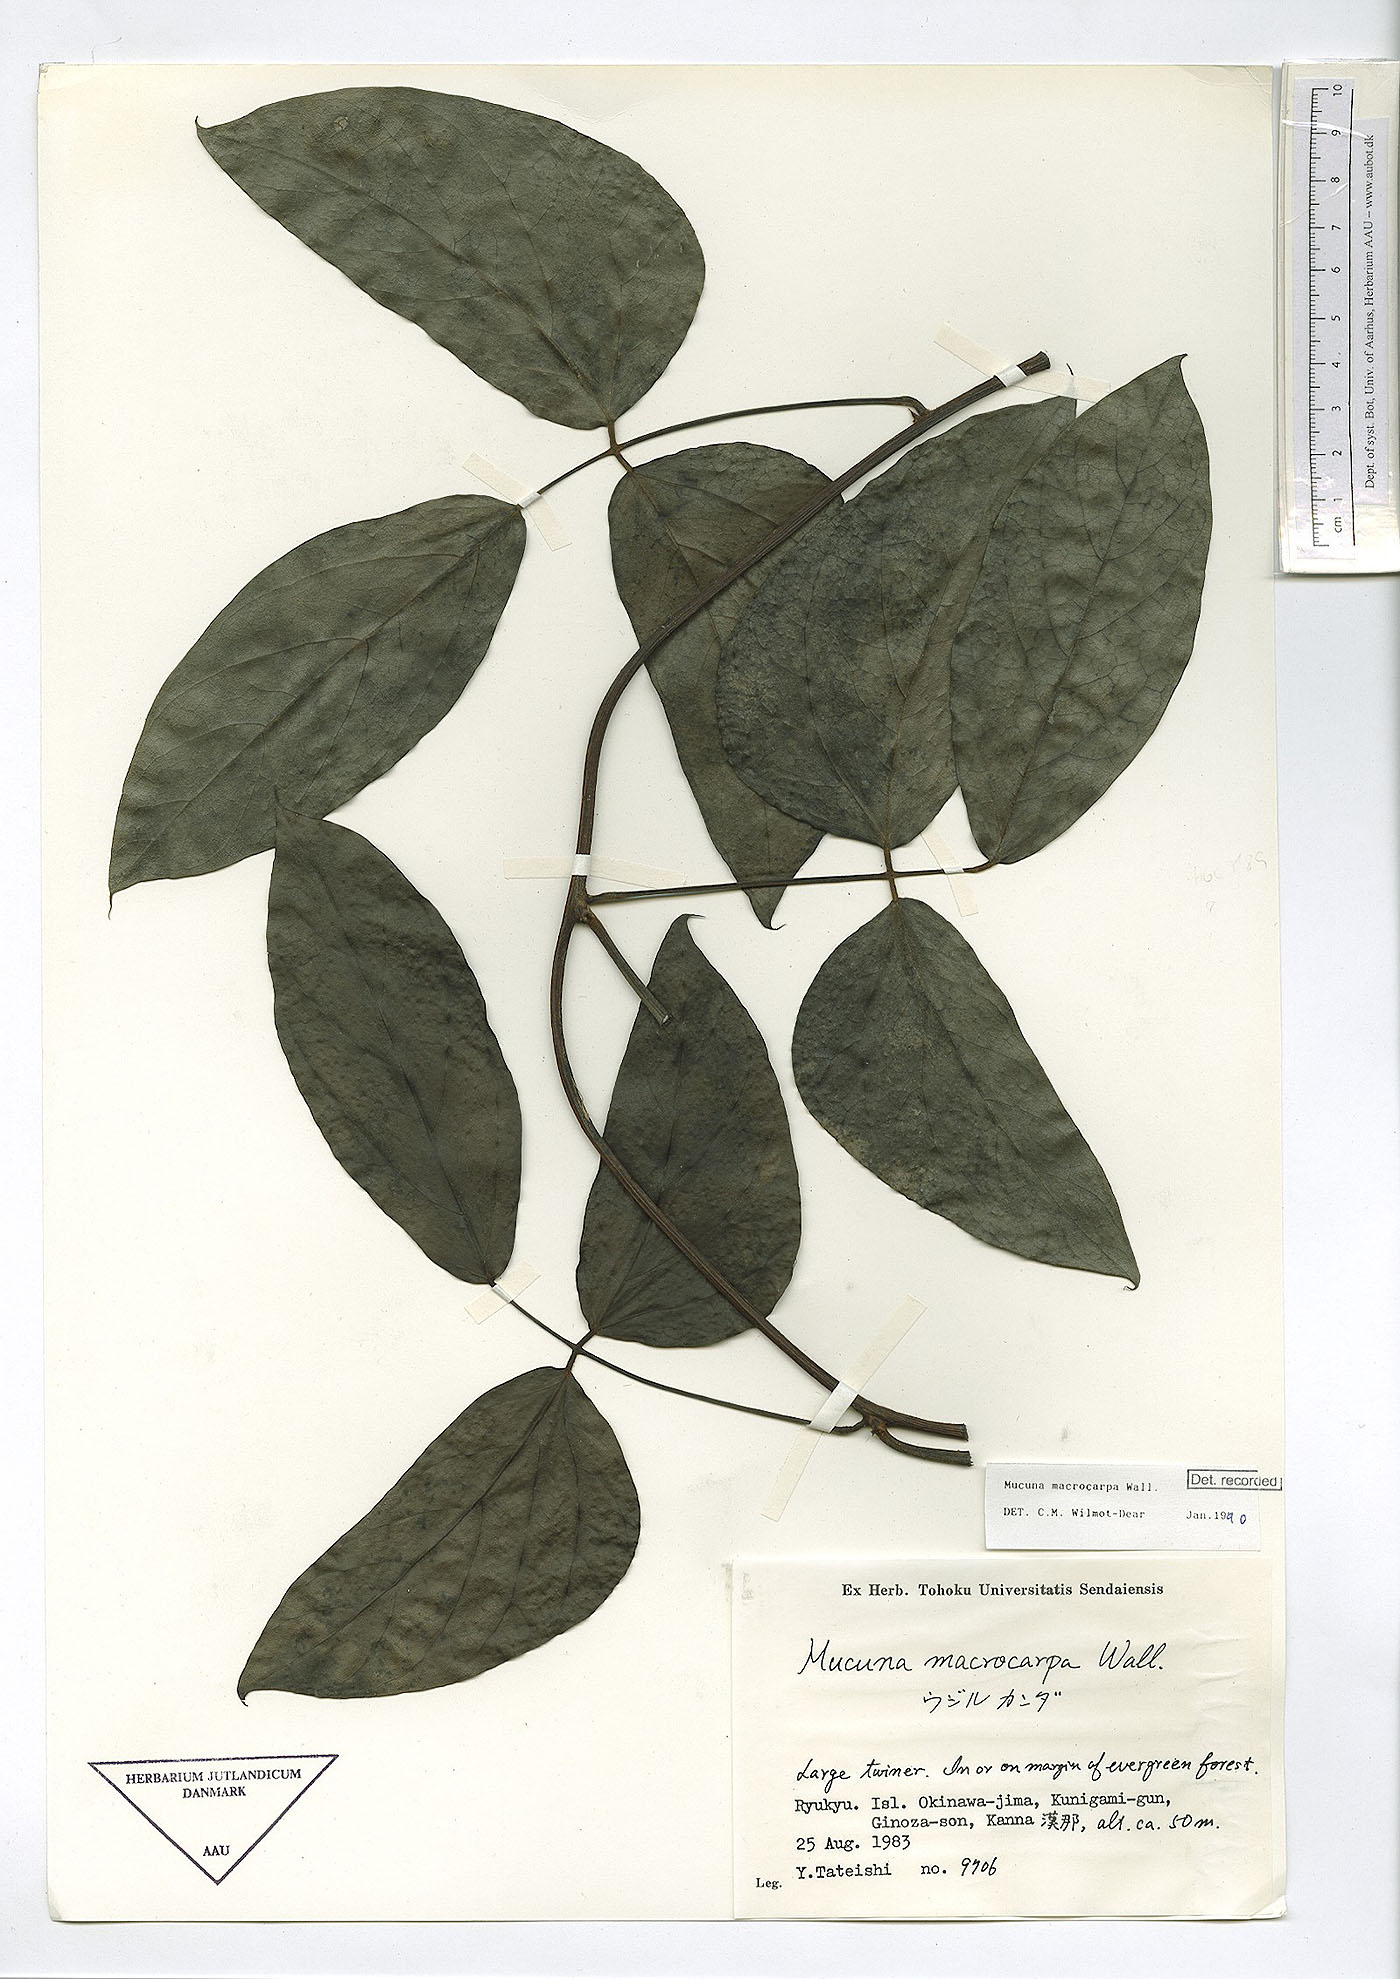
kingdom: Plantae
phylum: Tracheophyta
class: Magnoliopsida
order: Fabales
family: Fabaceae
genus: Mucuna
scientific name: Mucuna macrocarpa
